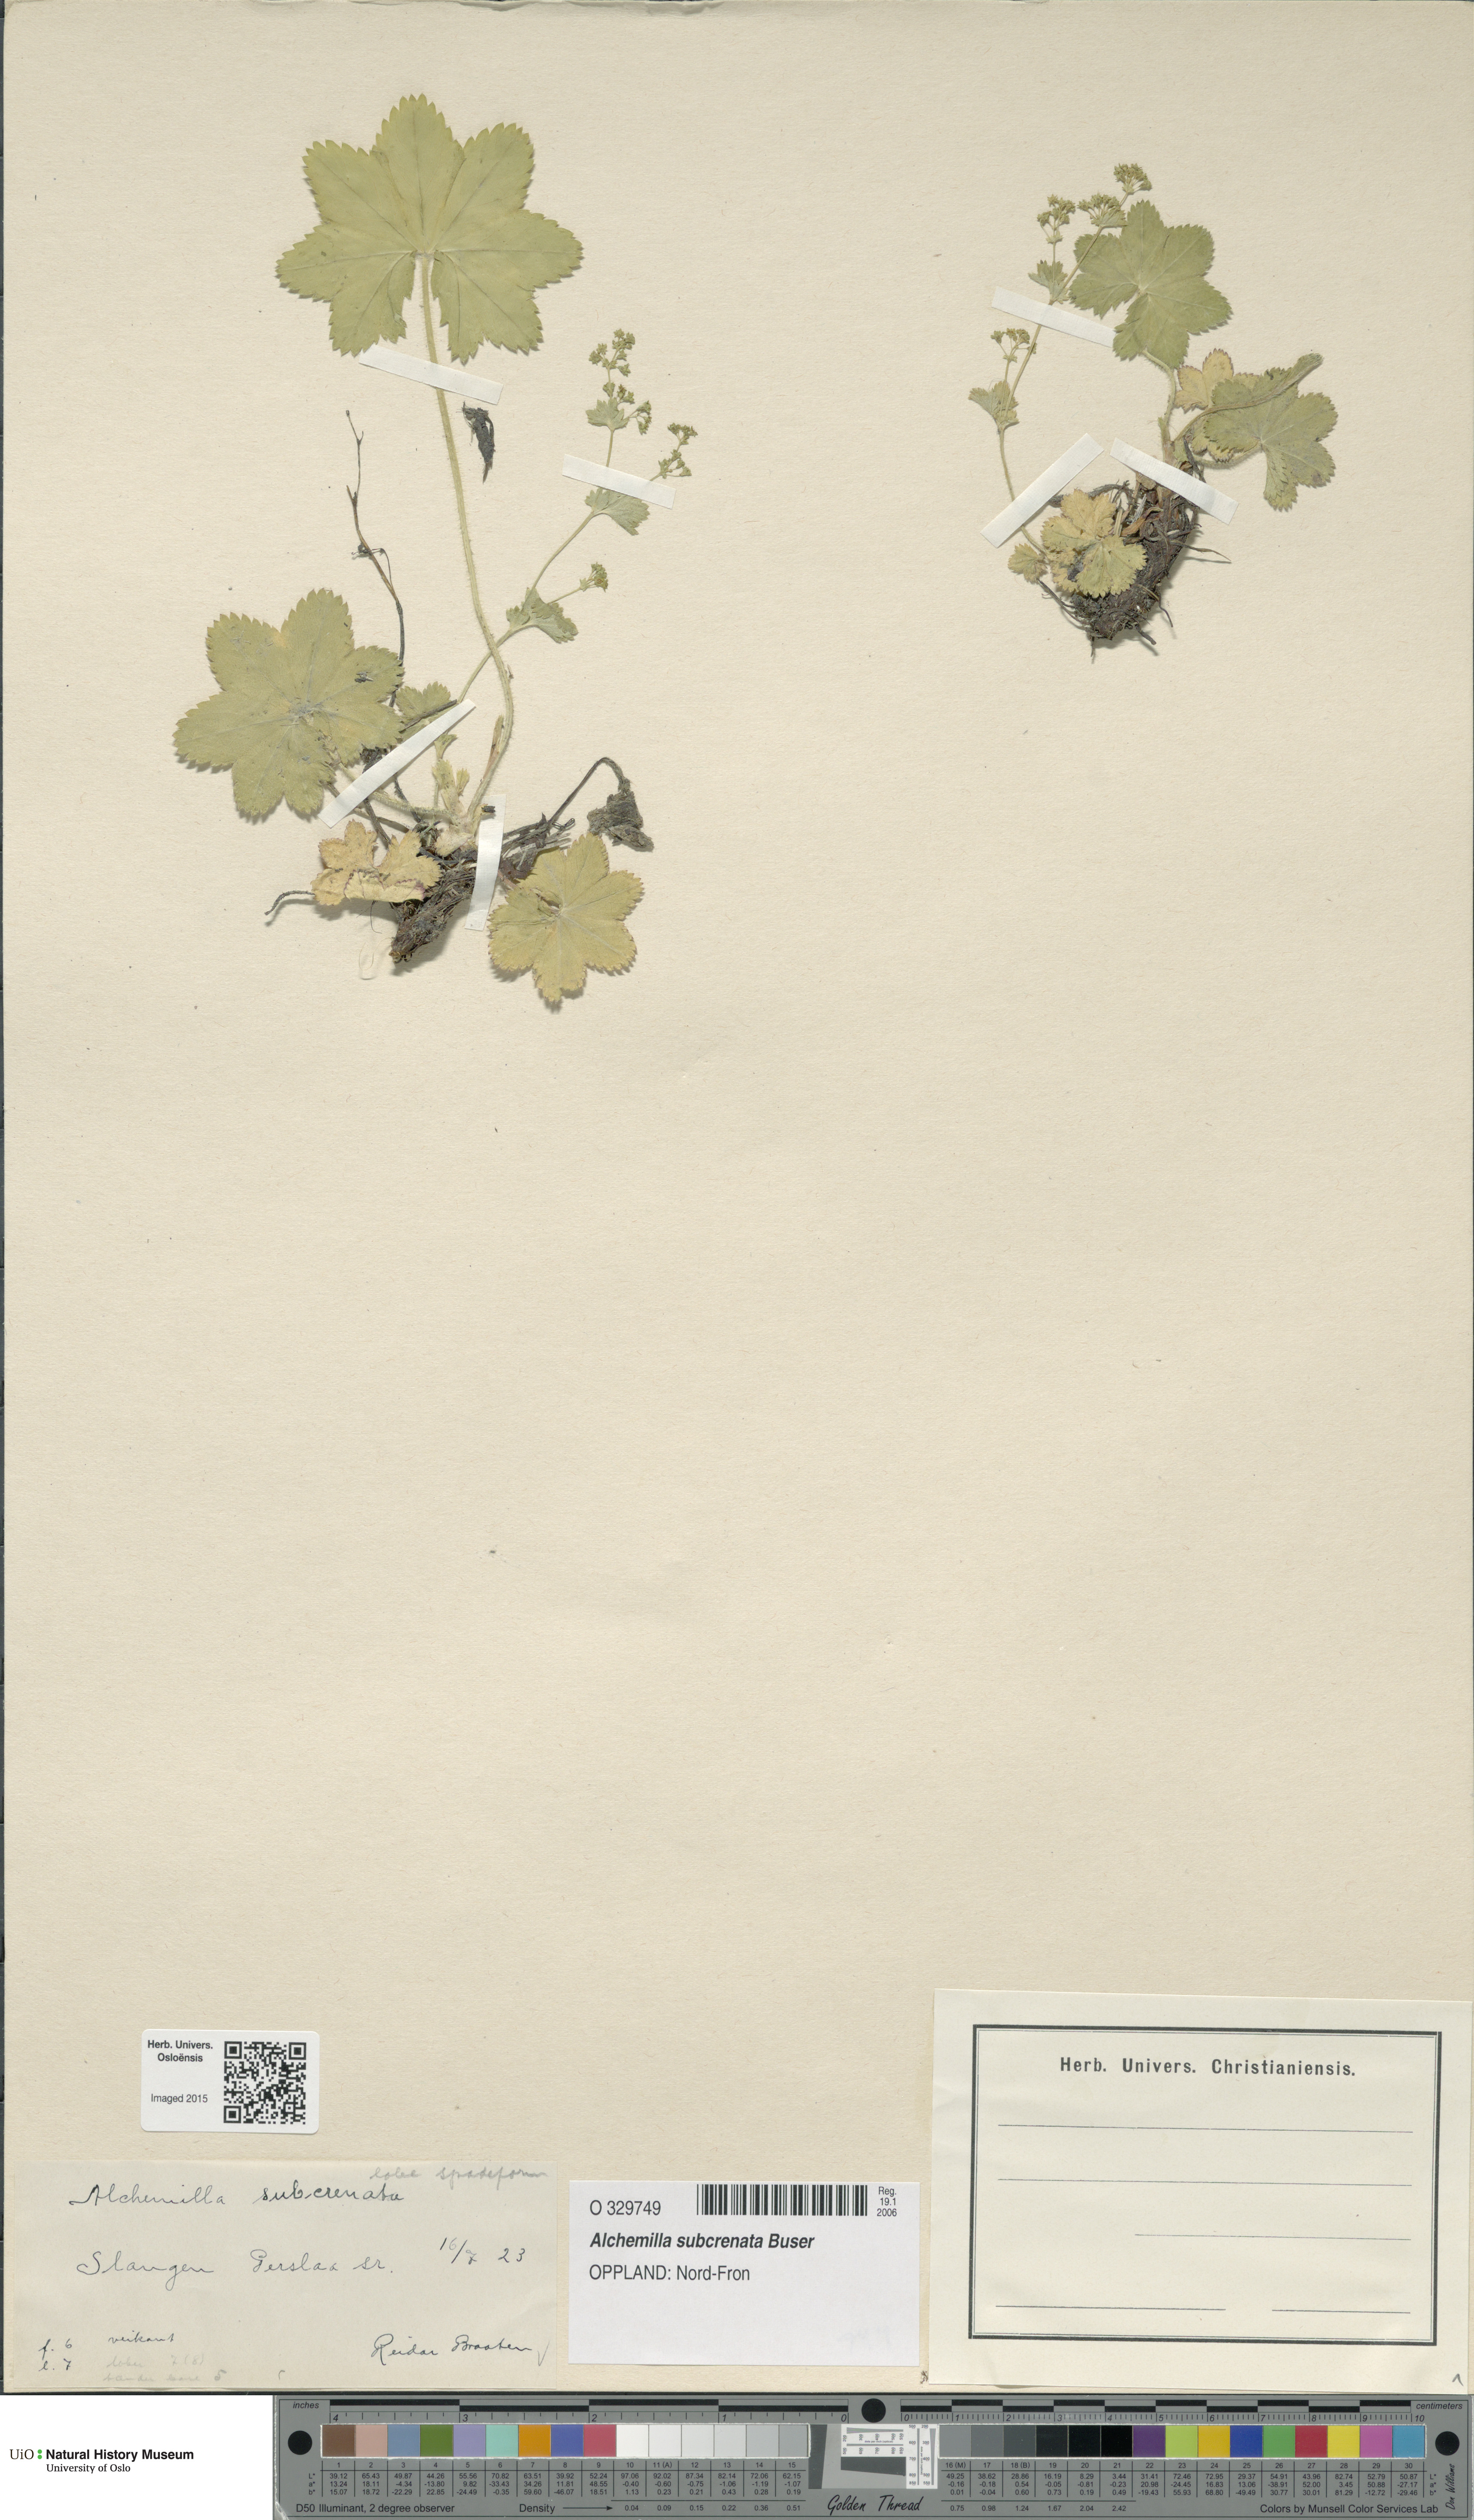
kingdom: Plantae
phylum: Tracheophyta
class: Magnoliopsida
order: Rosales
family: Rosaceae
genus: Alchemilla
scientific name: Alchemilla subcrenata
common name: Broadtooth lady's mantle
